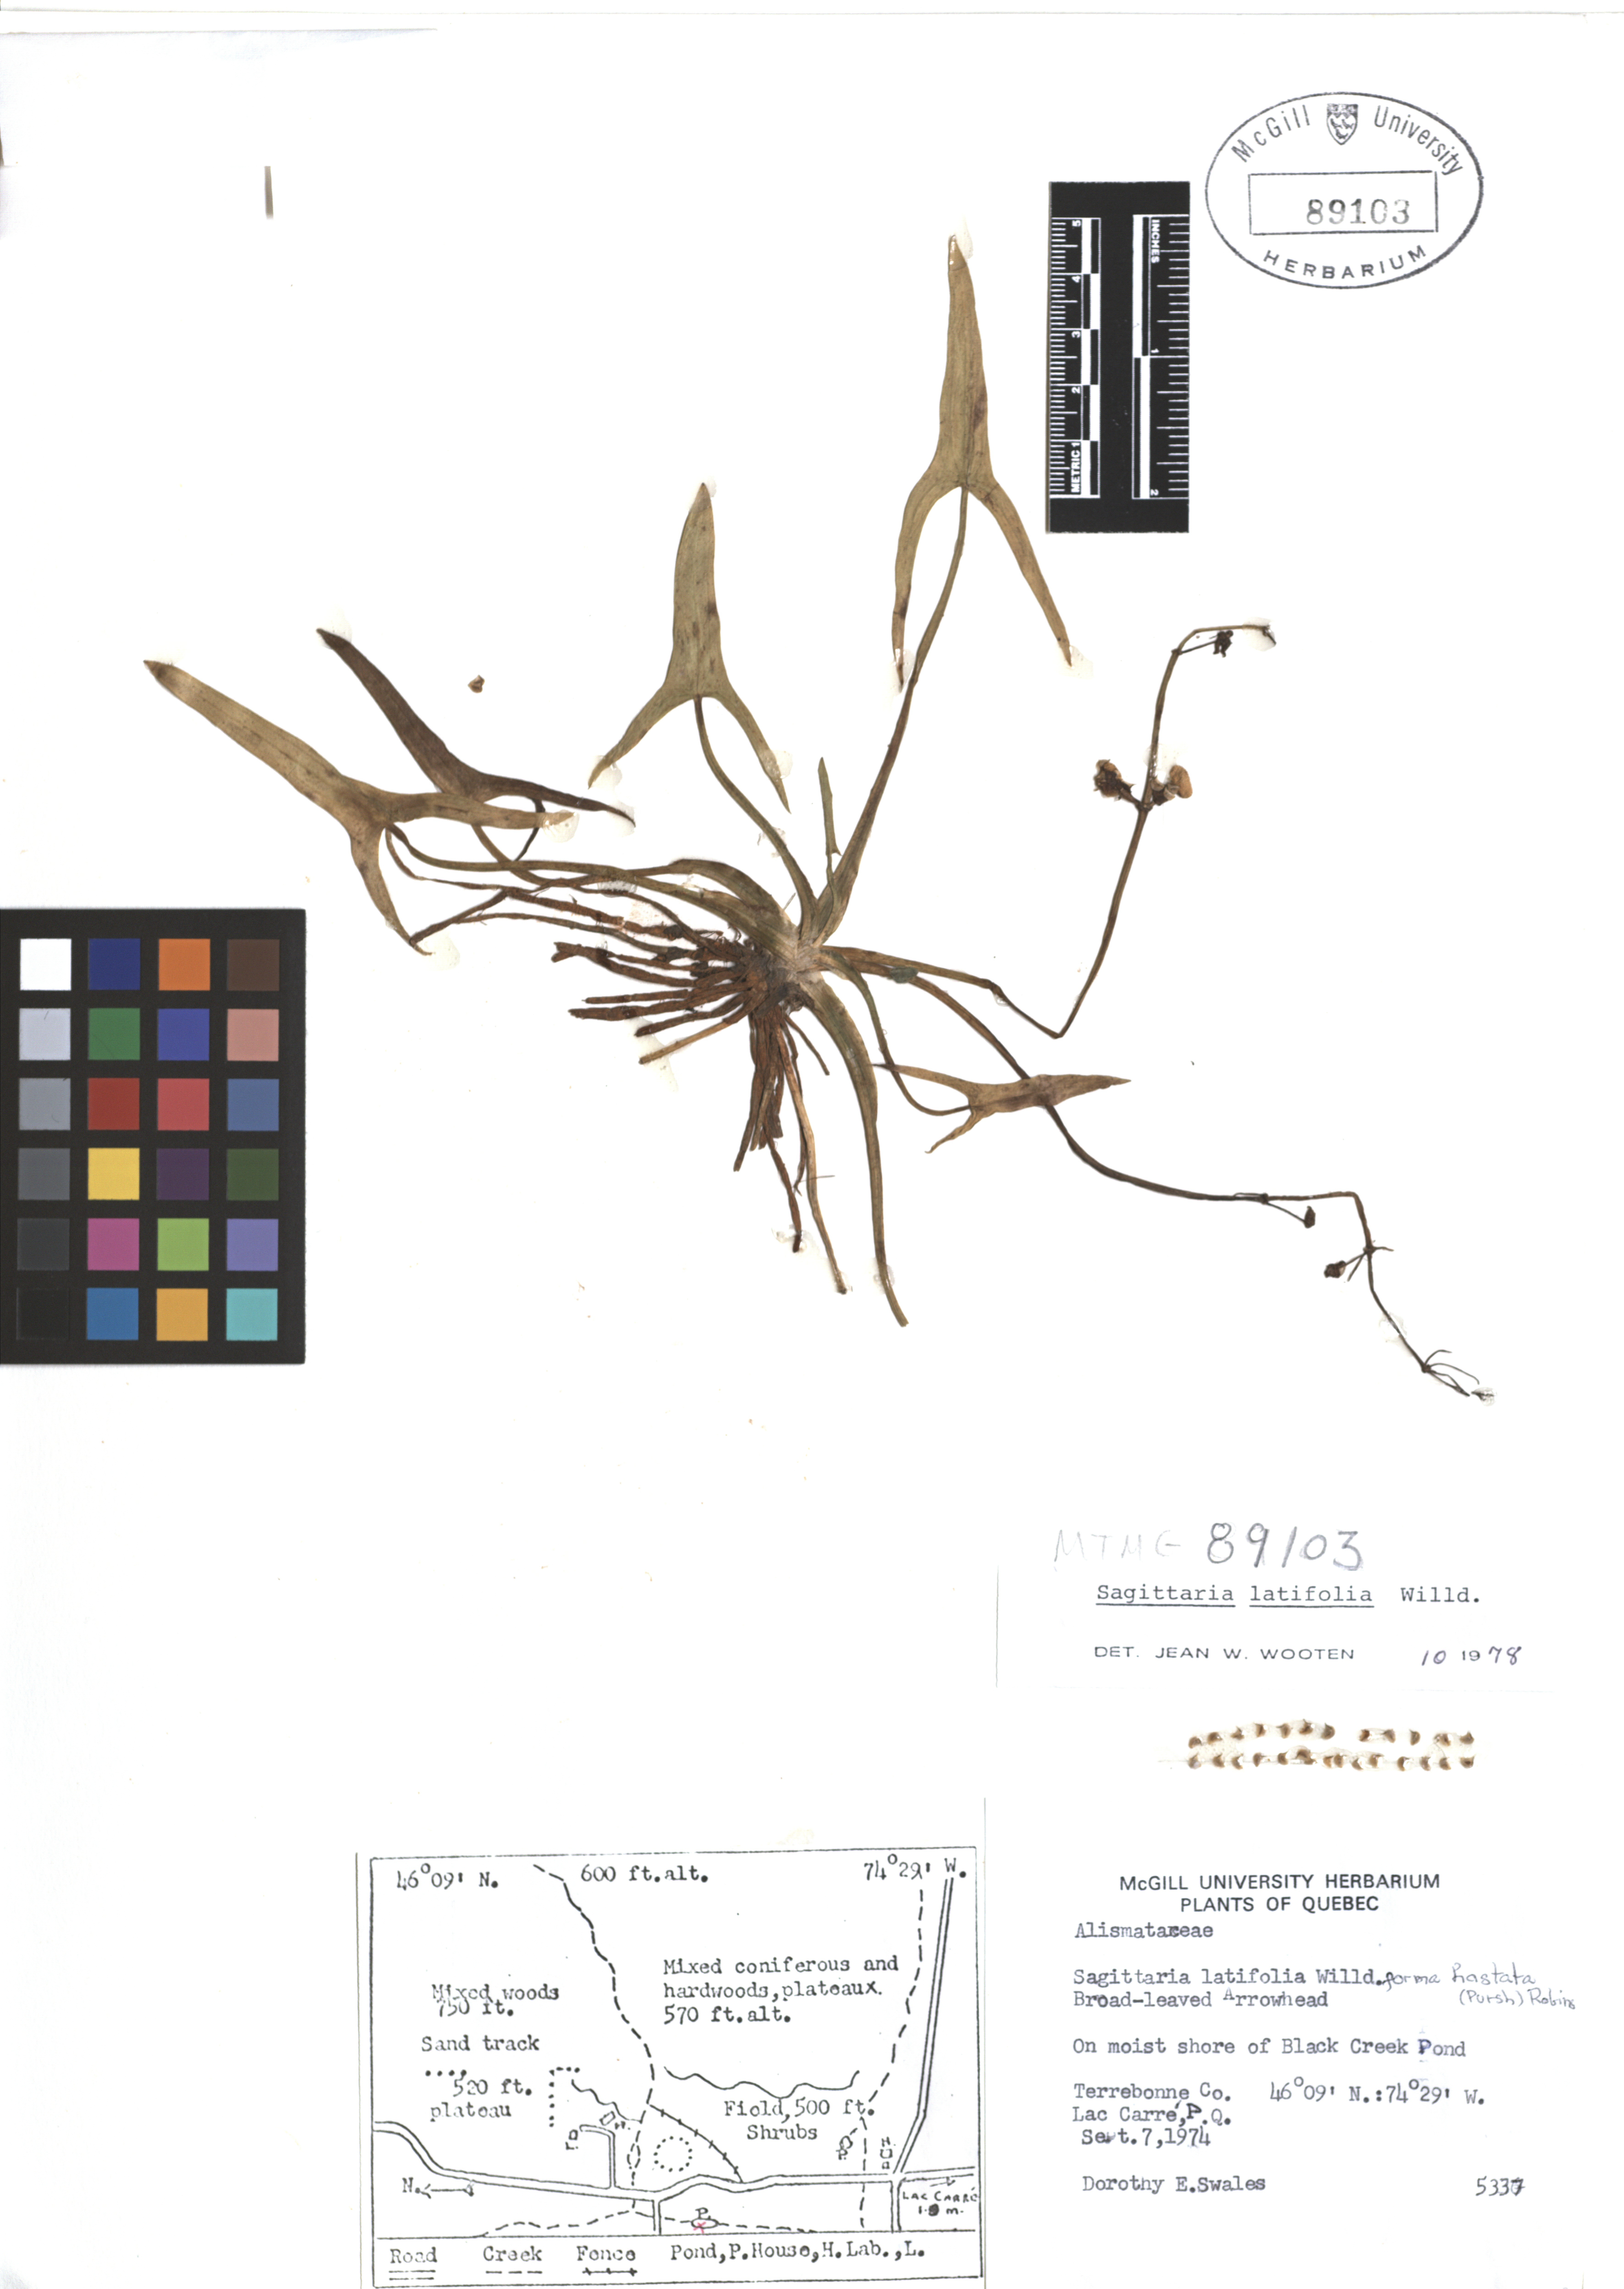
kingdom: Plantae
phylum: Tracheophyta
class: Liliopsida
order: Alismatales
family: Alismataceae
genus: Sagittaria
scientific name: Sagittaria latifolia
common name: Duck-potato
